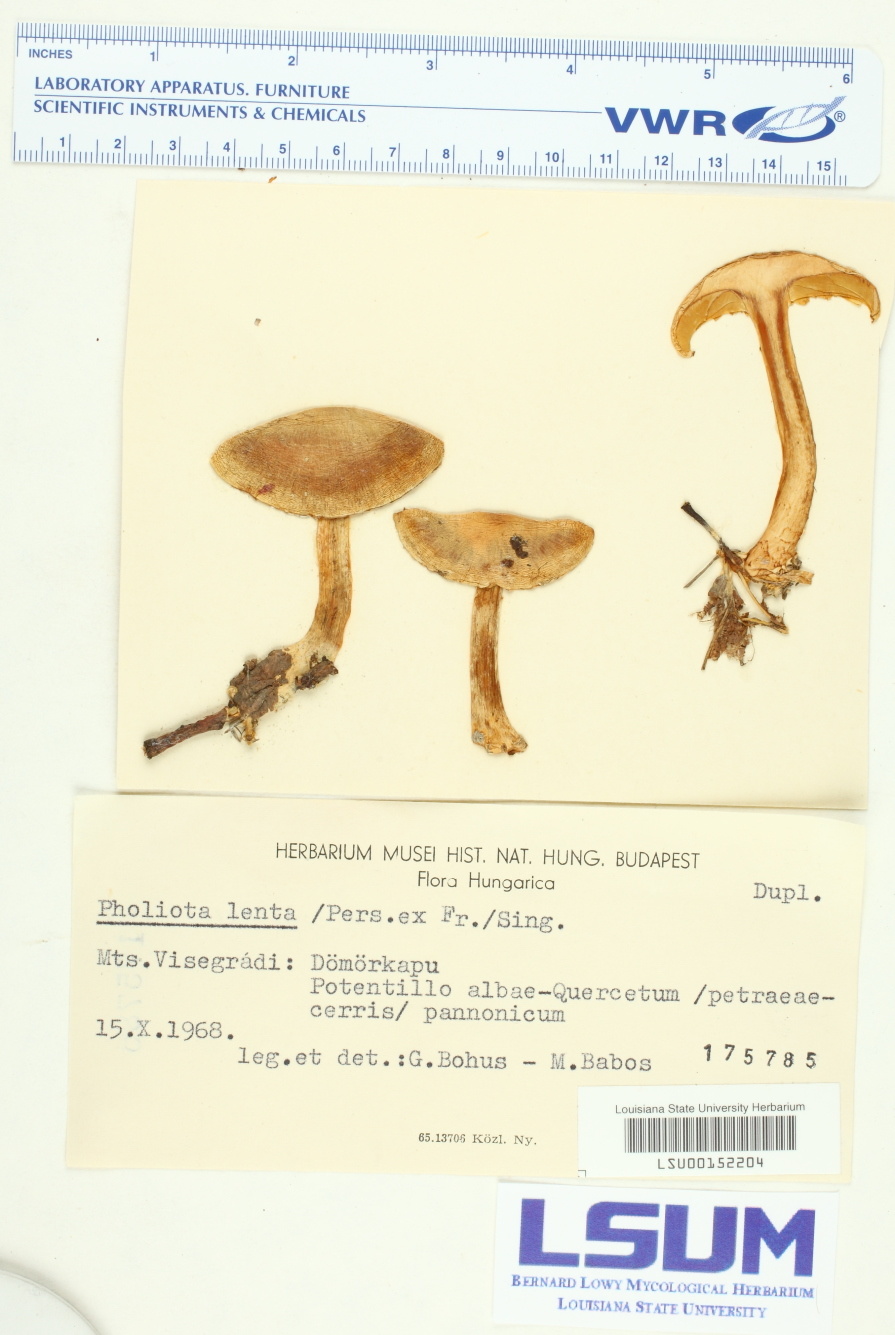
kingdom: Fungi
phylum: Basidiomycota
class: Agaricomycetes
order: Agaricales
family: Strophariaceae
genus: Pholiota
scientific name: Pholiota lenta
